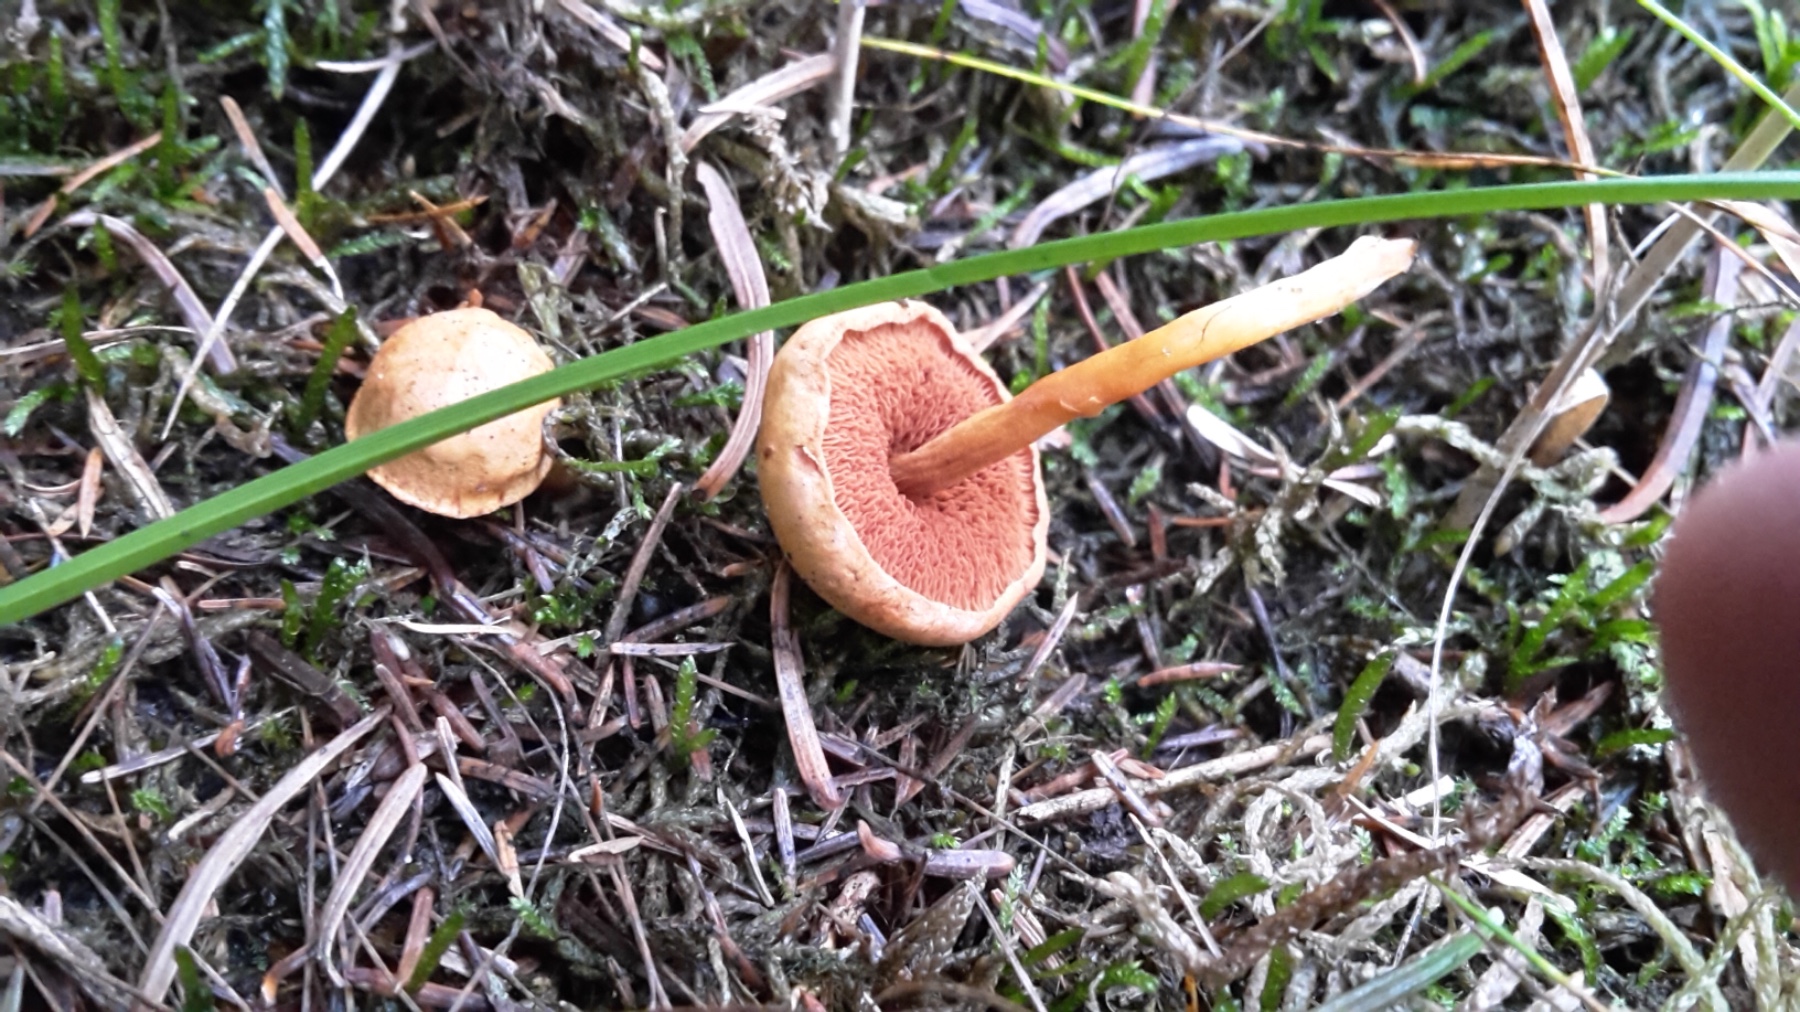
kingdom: Fungi
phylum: Basidiomycota
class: Agaricomycetes
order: Boletales
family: Boletaceae
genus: Chalciporus
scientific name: Chalciporus piperatus
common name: peberrørhat
